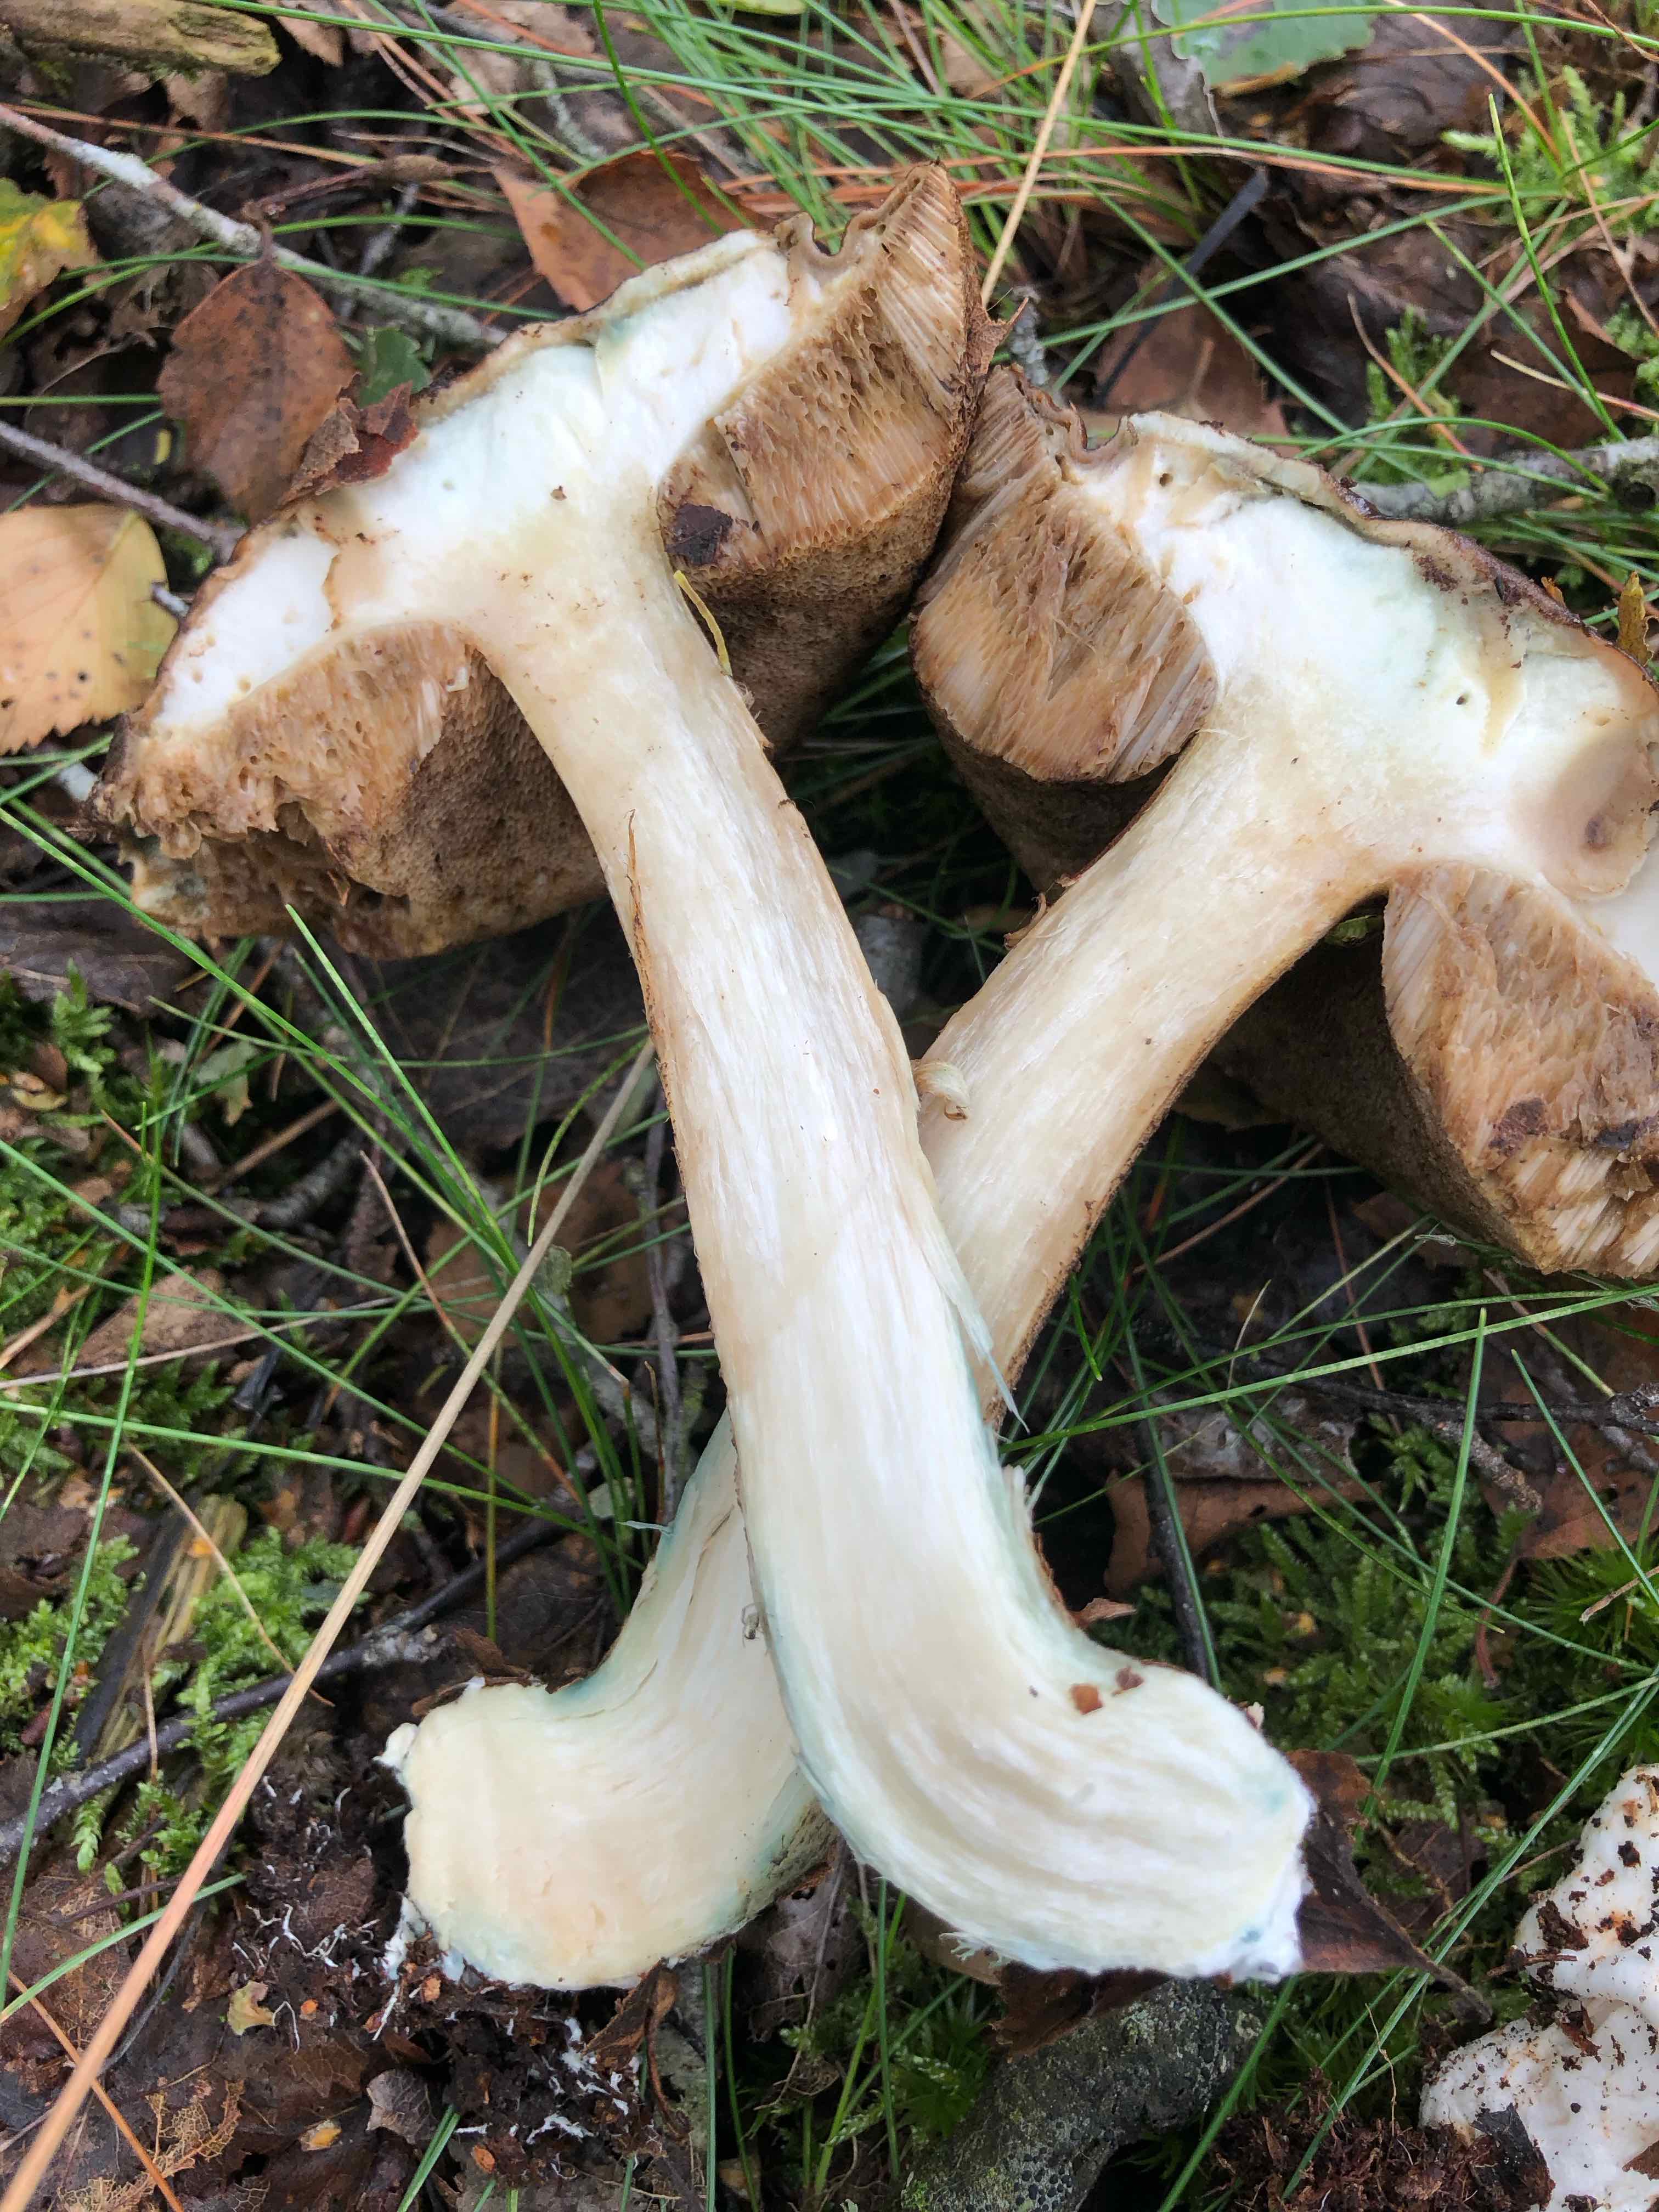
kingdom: Fungi
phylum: Basidiomycota
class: Agaricomycetes
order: Boletales
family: Boletaceae
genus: Leccinum
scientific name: Leccinum cyaneobasileucum
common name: almindelig skælrørhat
